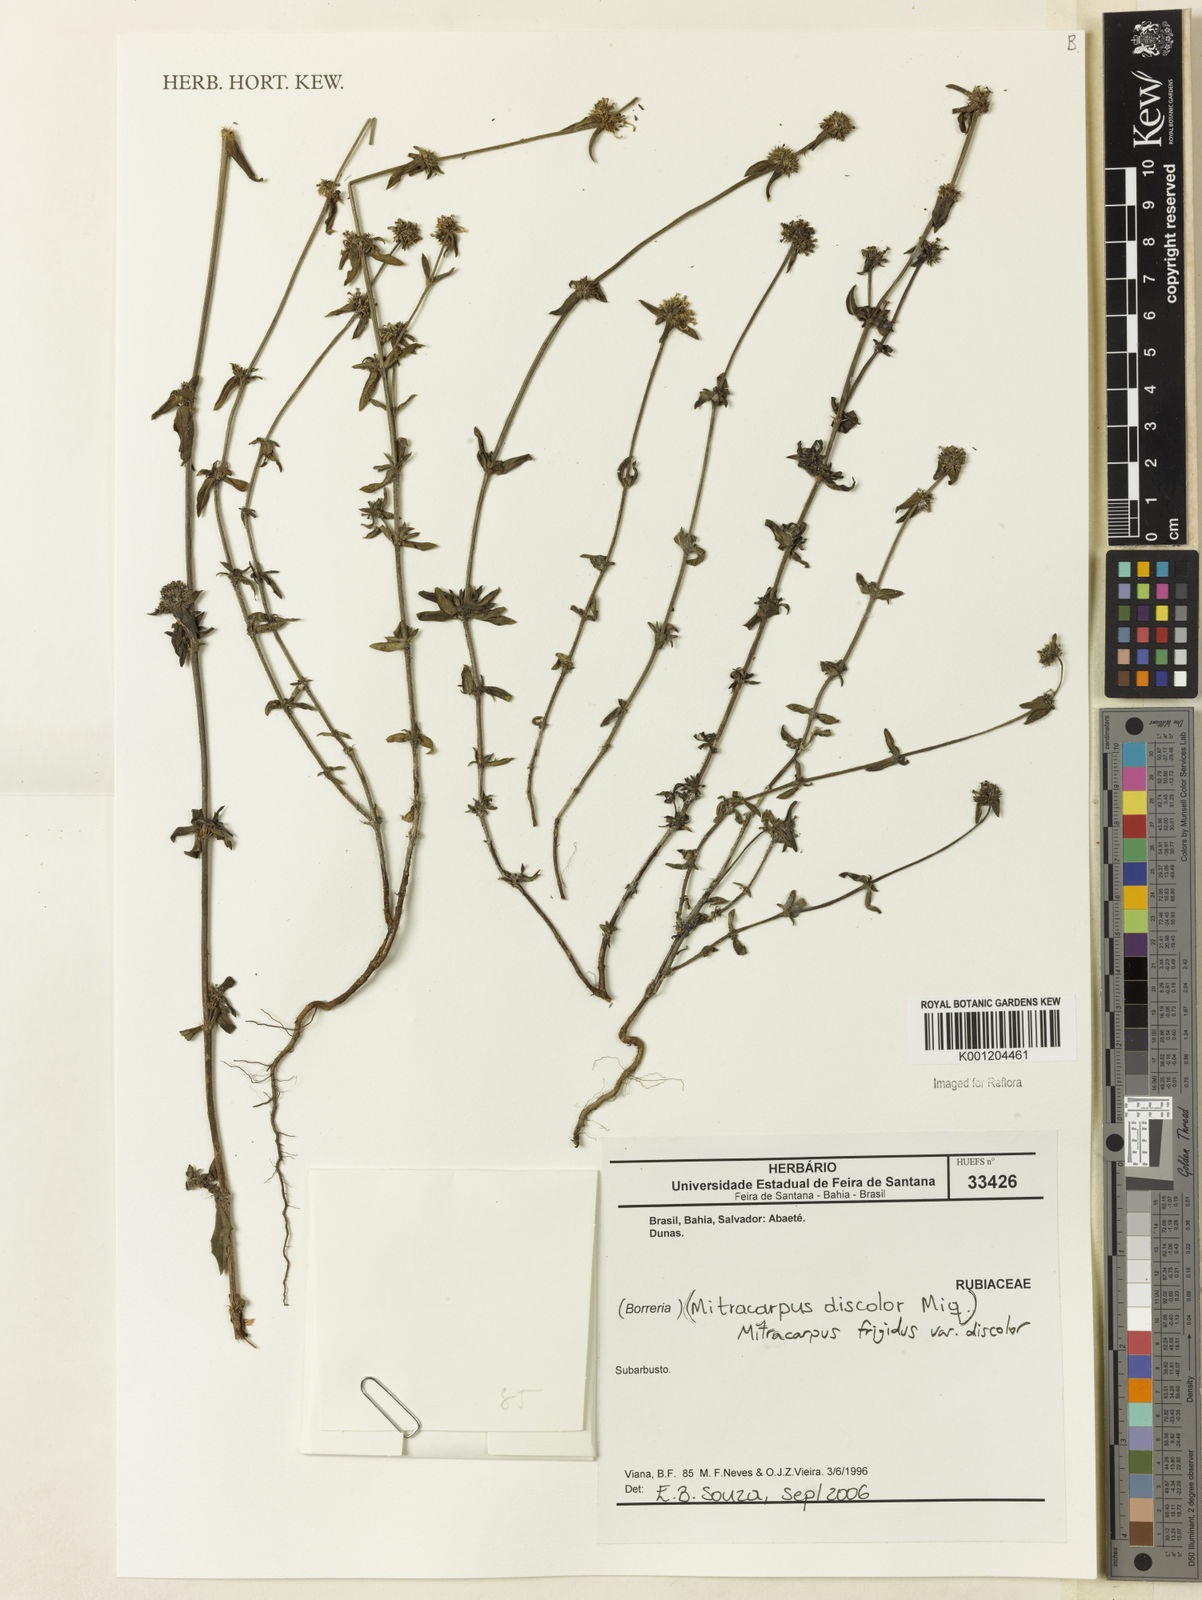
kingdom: Plantae
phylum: Tracheophyta
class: Magnoliopsida
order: Gentianales
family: Rubiaceae
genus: Mitracarpus
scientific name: Mitracarpus frigidus
